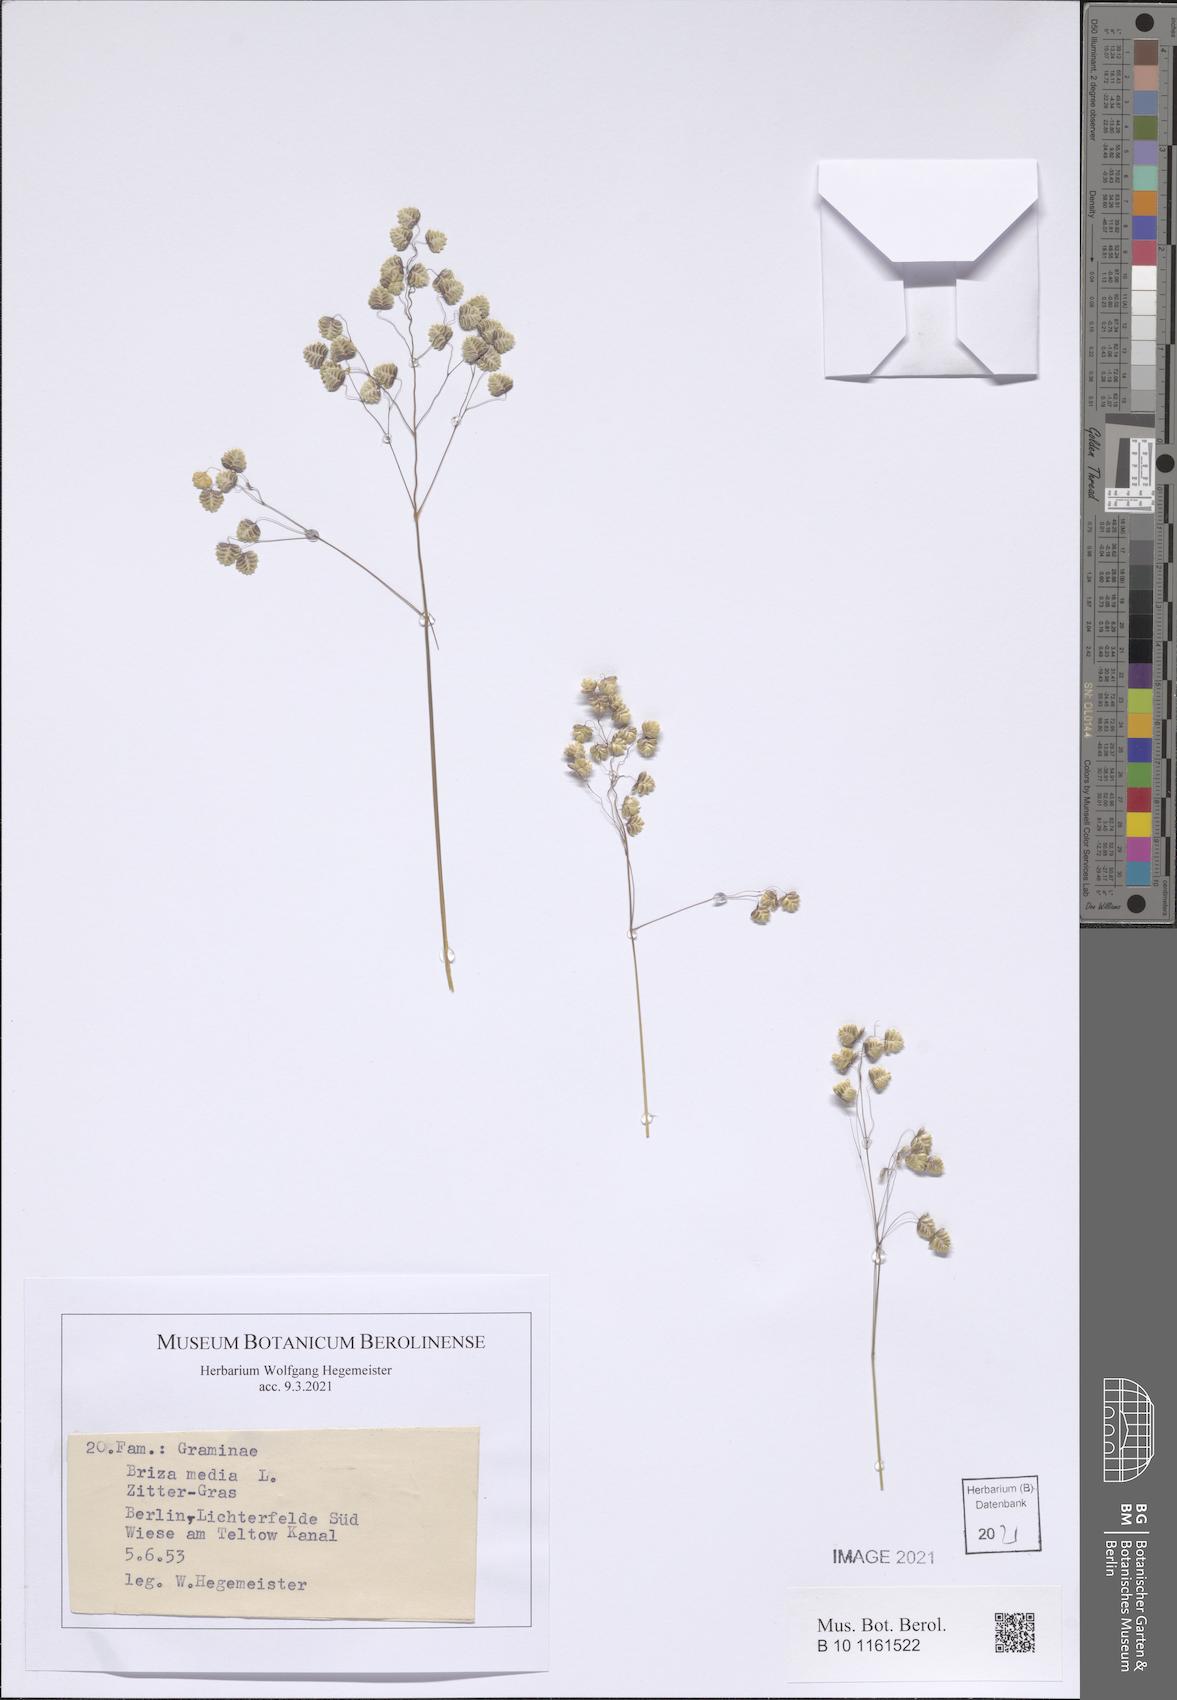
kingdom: Plantae
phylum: Tracheophyta
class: Liliopsida
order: Poales
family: Poaceae
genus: Briza
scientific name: Briza media
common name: Quaking grass
